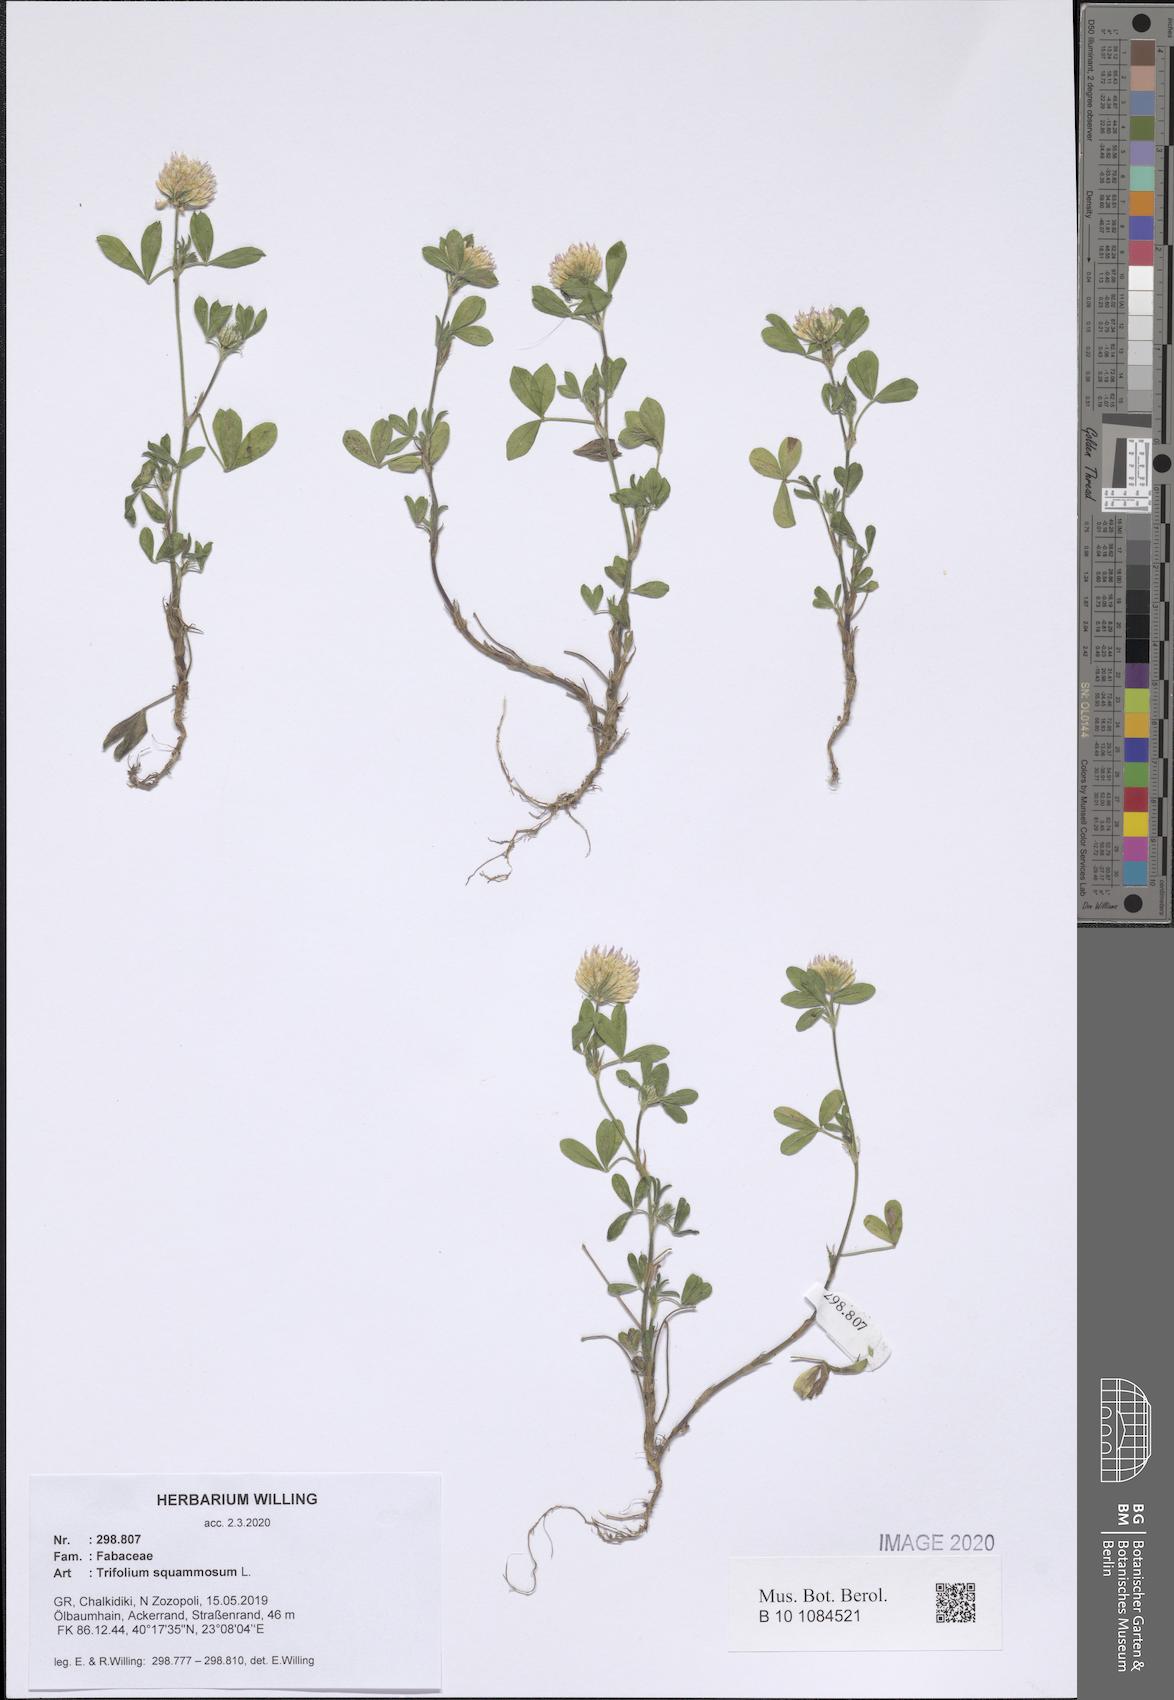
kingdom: Plantae
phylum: Tracheophyta
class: Magnoliopsida
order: Fabales
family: Fabaceae
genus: Trifolium
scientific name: Trifolium squamosum
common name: Sea clover
